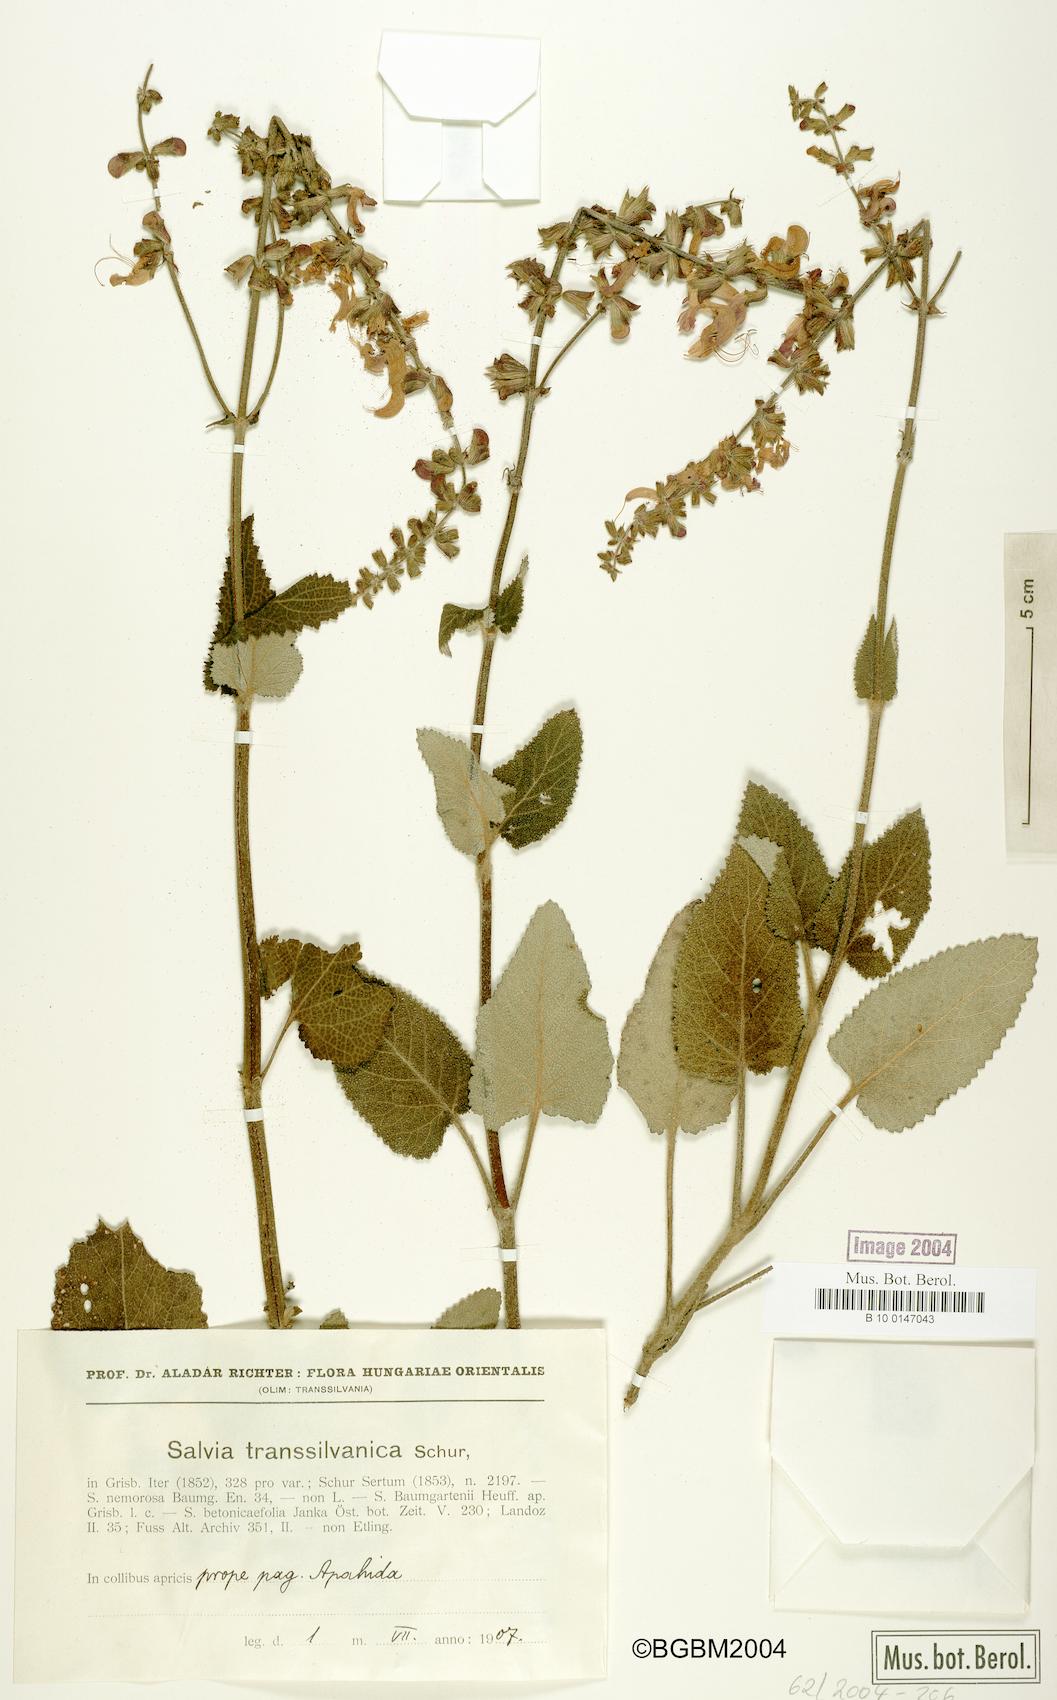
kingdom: Plantae
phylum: Tracheophyta
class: Magnoliopsida
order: Lamiales
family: Lamiaceae
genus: Salvia
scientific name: Salvia transsylvanica
